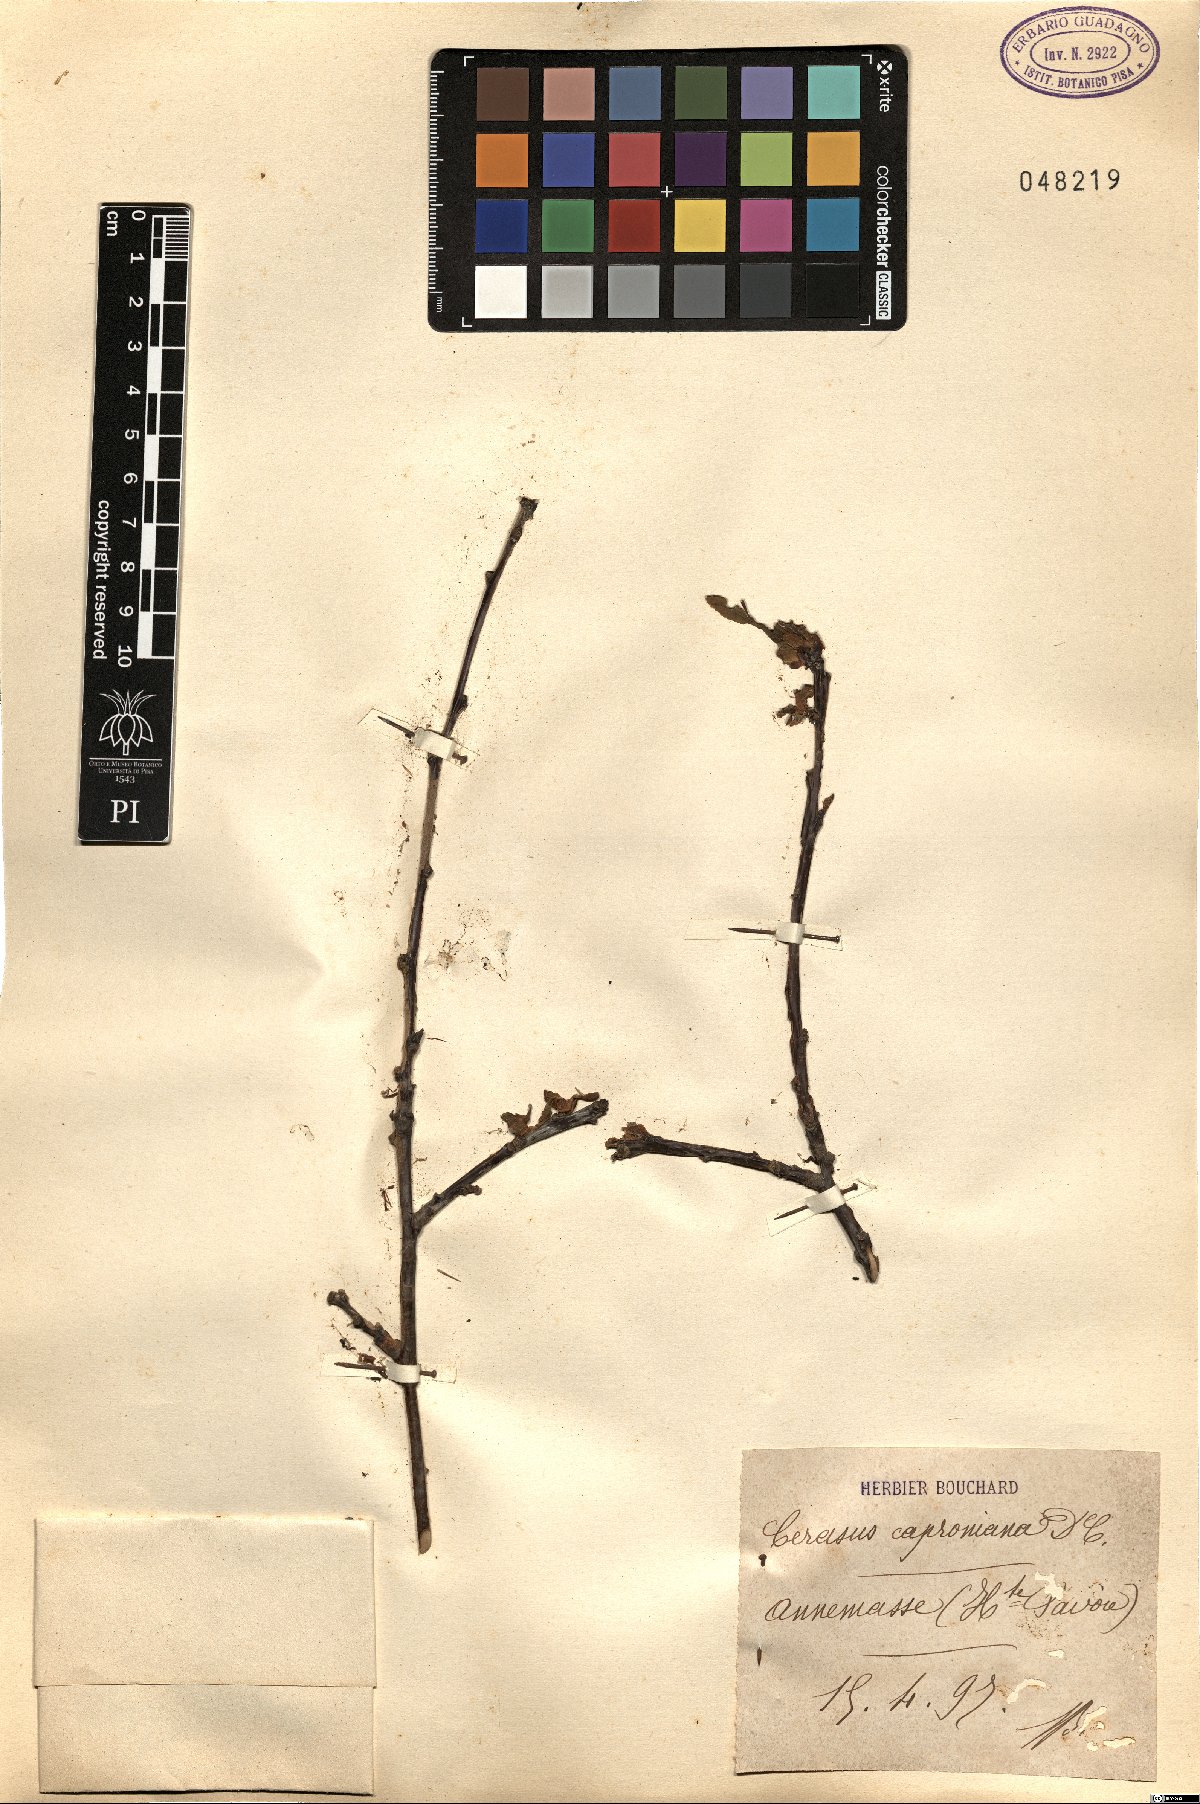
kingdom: Plantae
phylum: Tracheophyta
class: Magnoliopsida
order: Rosales
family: Rosaceae
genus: Prunus
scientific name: Prunus cerasus
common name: Morello cherry
